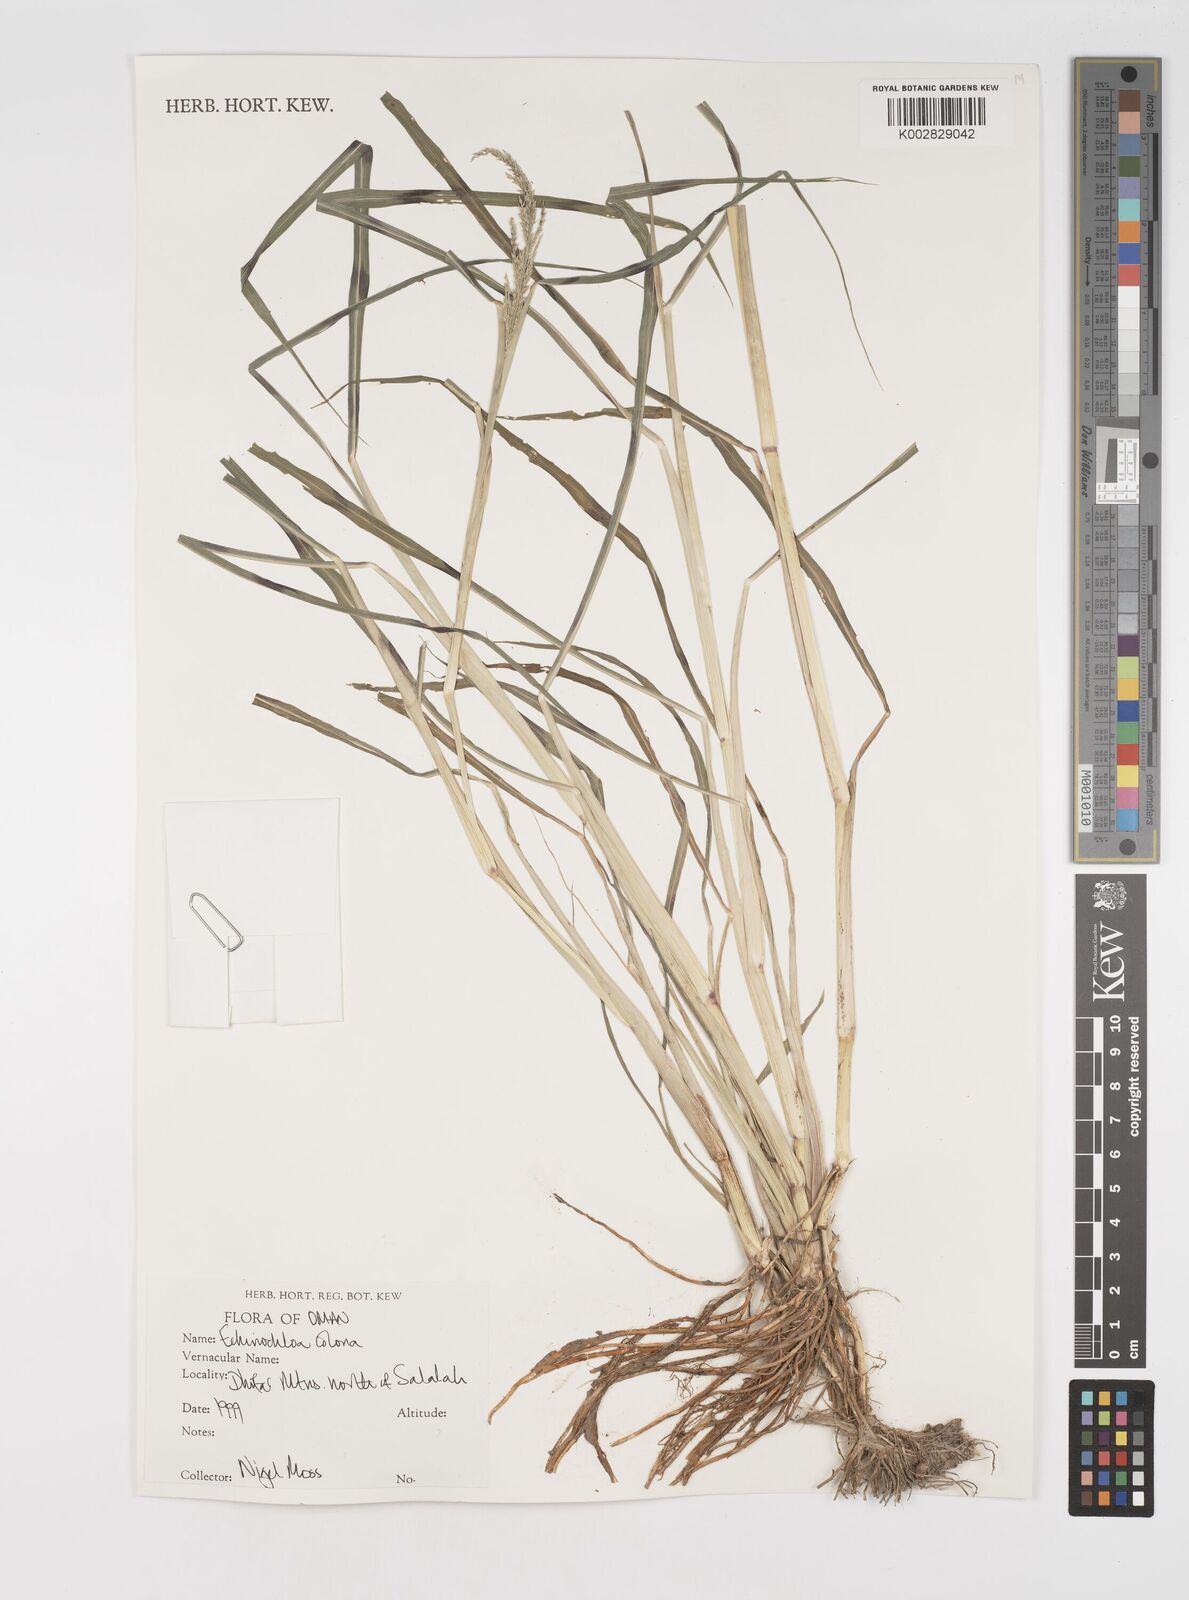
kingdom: Plantae
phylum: Tracheophyta
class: Liliopsida
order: Poales
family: Poaceae
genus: Echinochloa
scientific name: Echinochloa colonum
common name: Jungle rice
